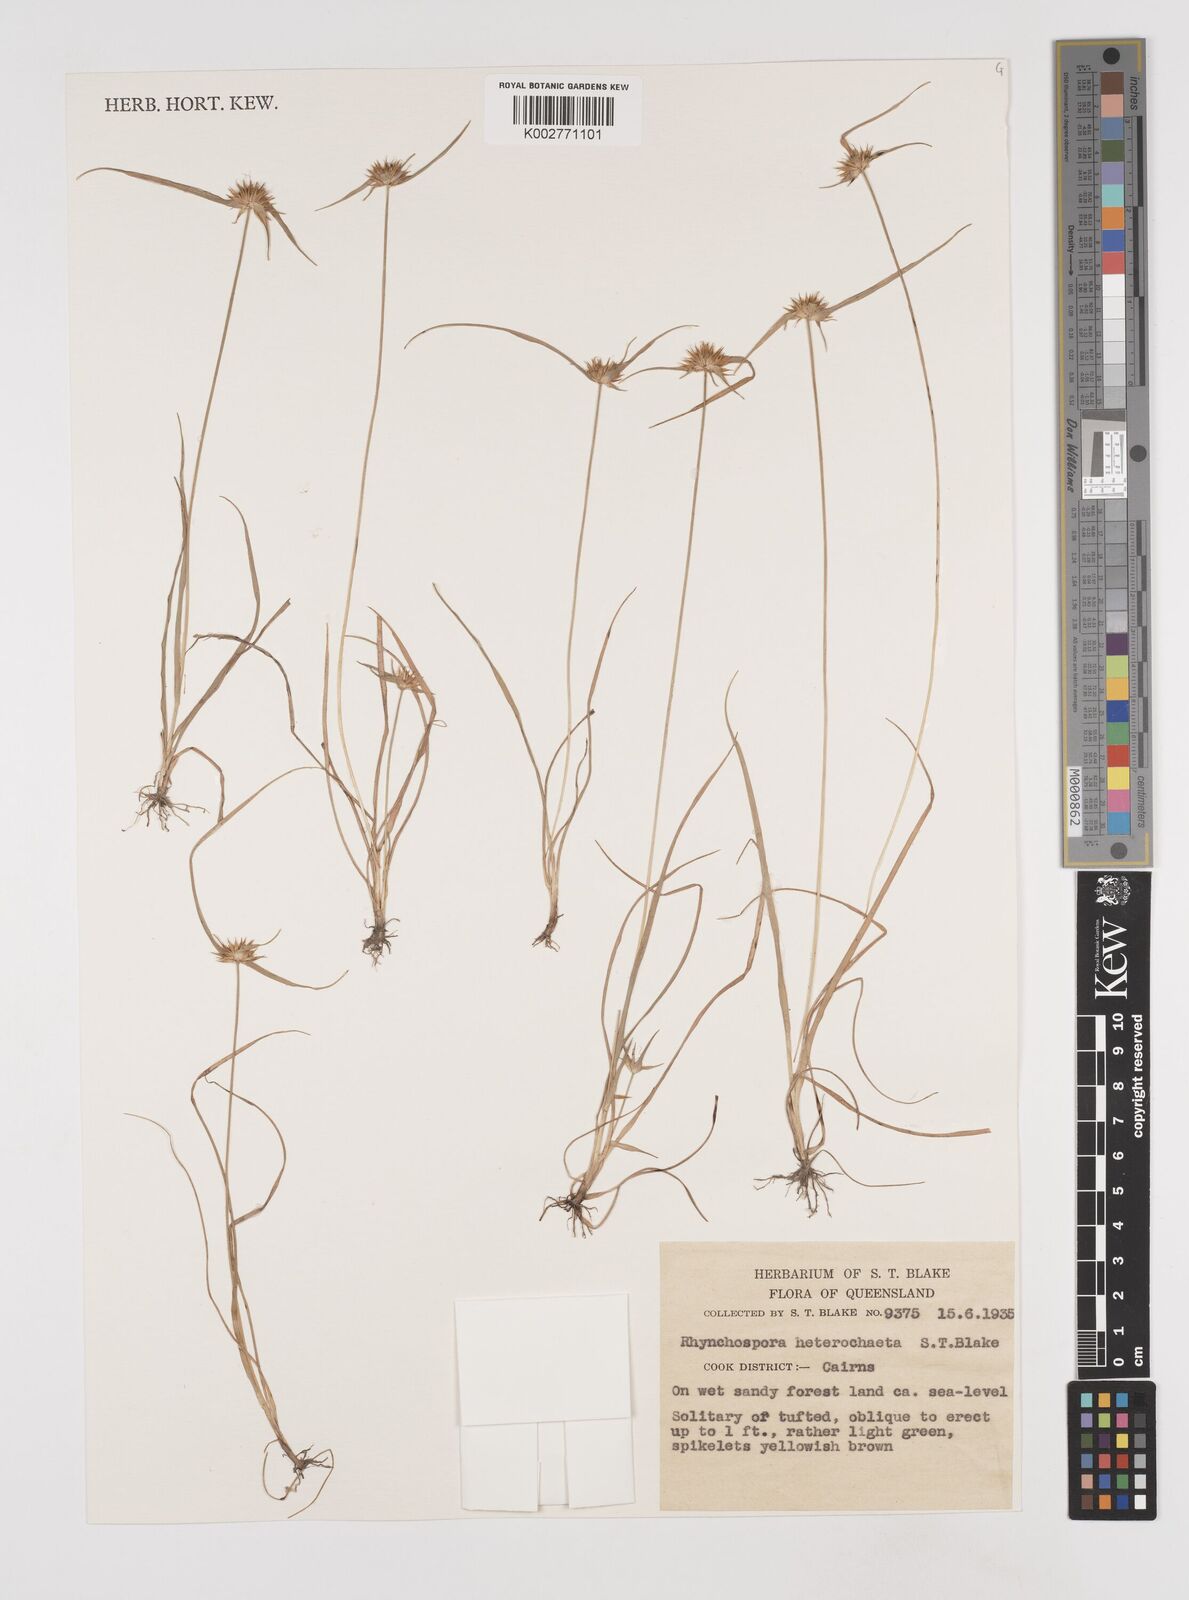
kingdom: Plantae
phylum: Tracheophyta
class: Liliopsida
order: Poales
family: Cyperaceae
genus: Rhynchospora
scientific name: Rhynchospora heterochaeta
